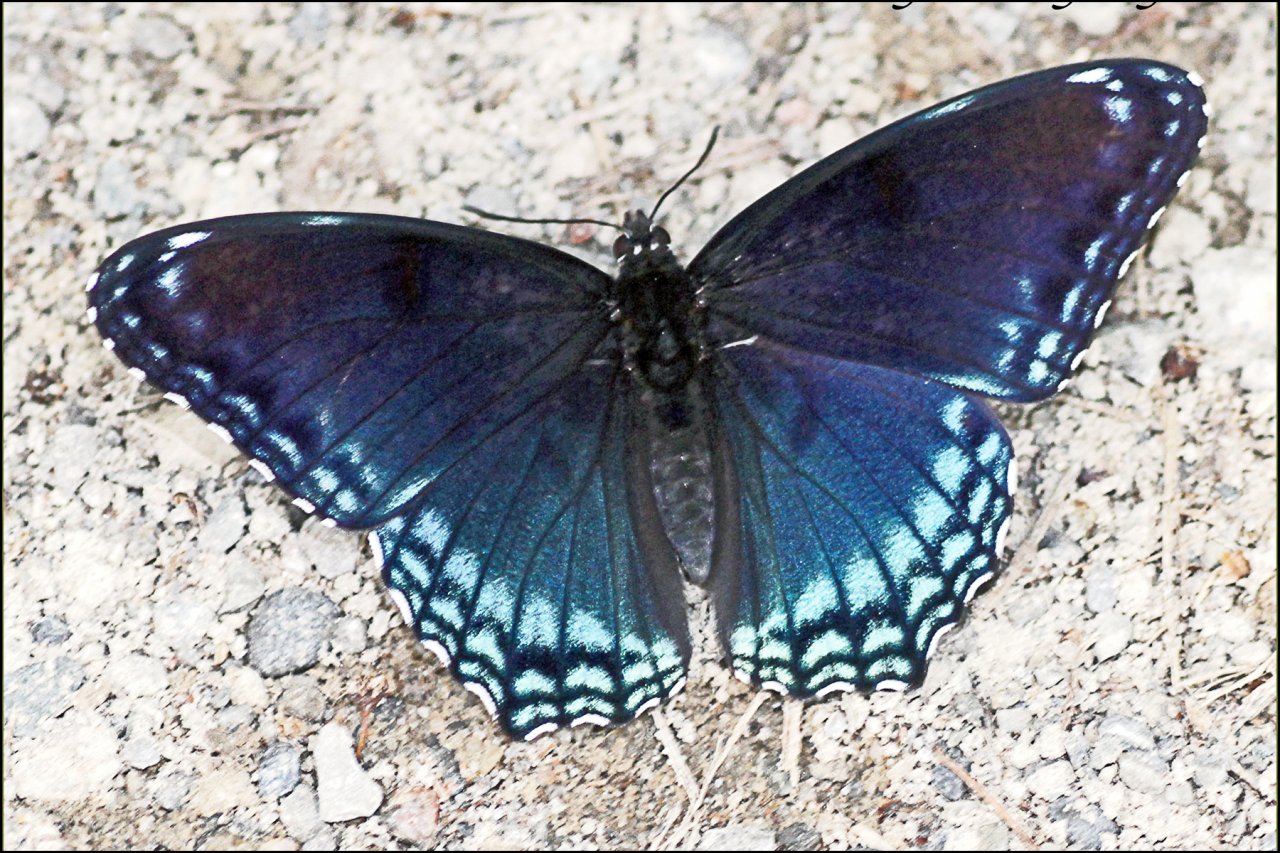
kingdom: Animalia
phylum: Arthropoda
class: Insecta
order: Lepidoptera
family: Nymphalidae
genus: Limenitis
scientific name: Limenitis astyanax
